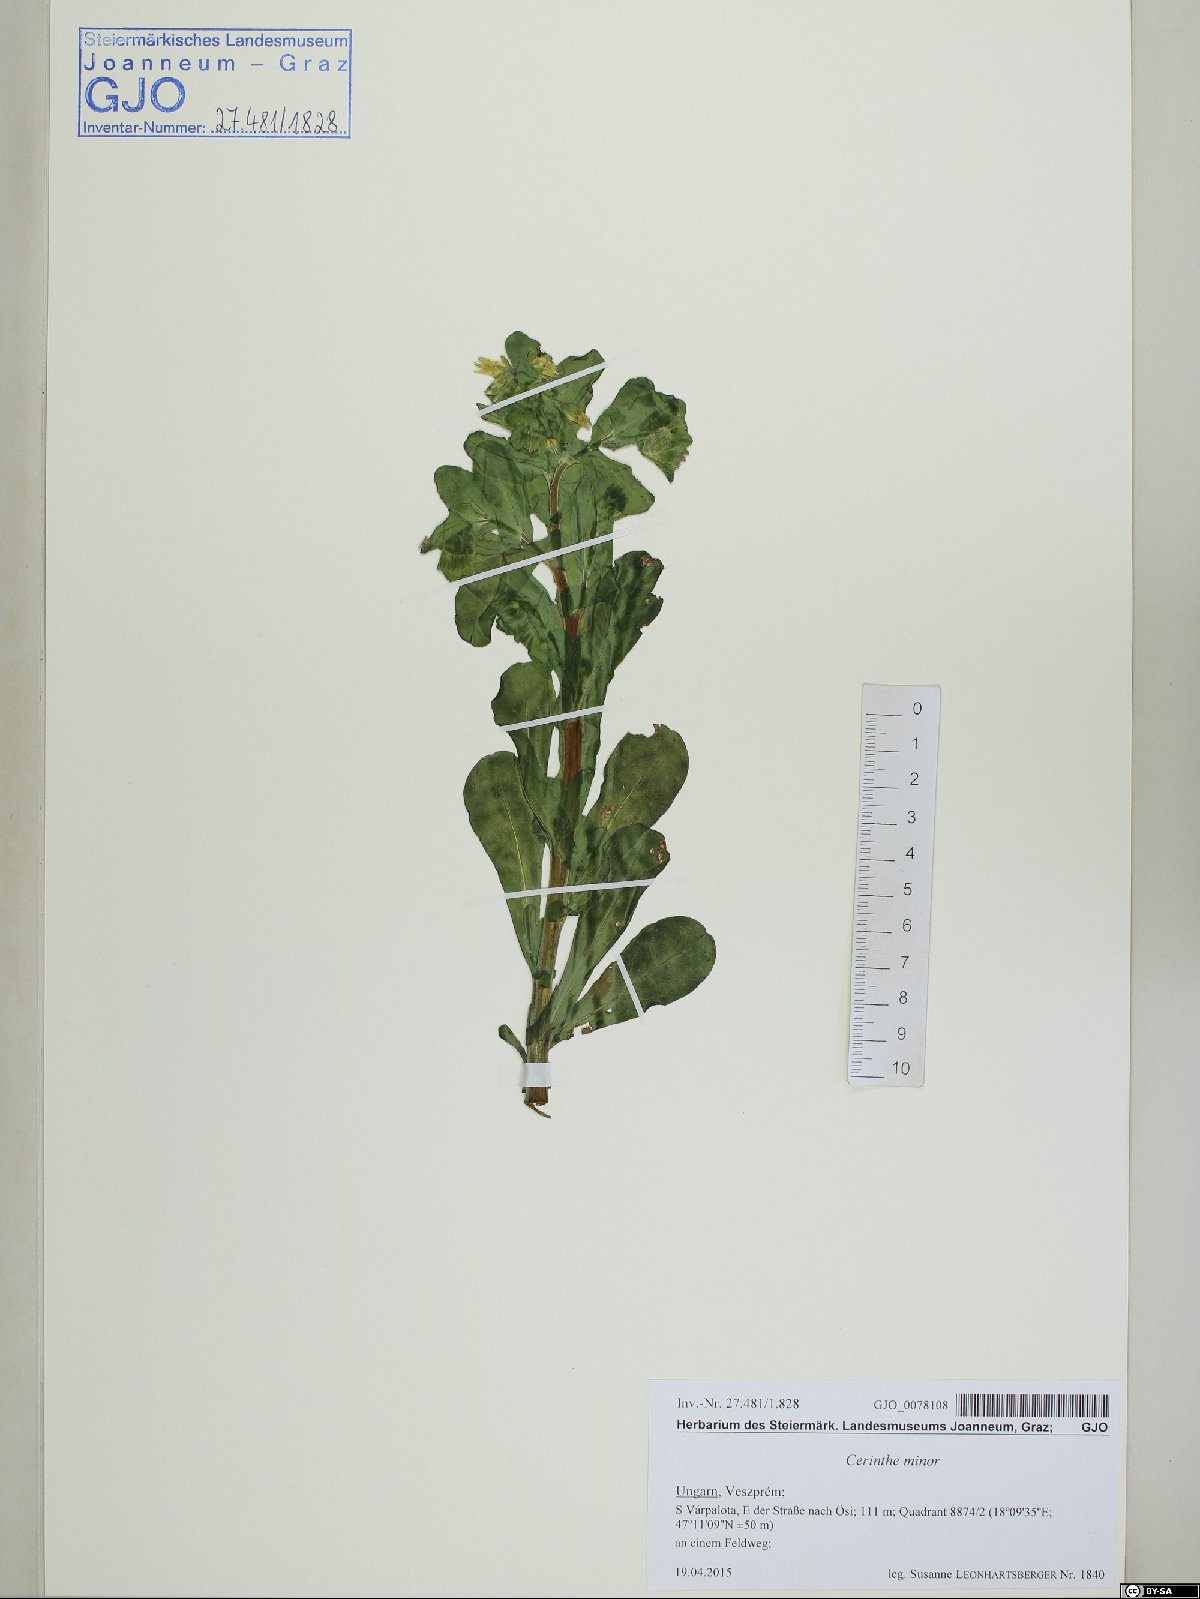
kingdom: Plantae
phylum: Tracheophyta
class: Magnoliopsida
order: Boraginales
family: Boraginaceae
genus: Cerinthe
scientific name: Cerinthe minor
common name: Lesser honeywort
